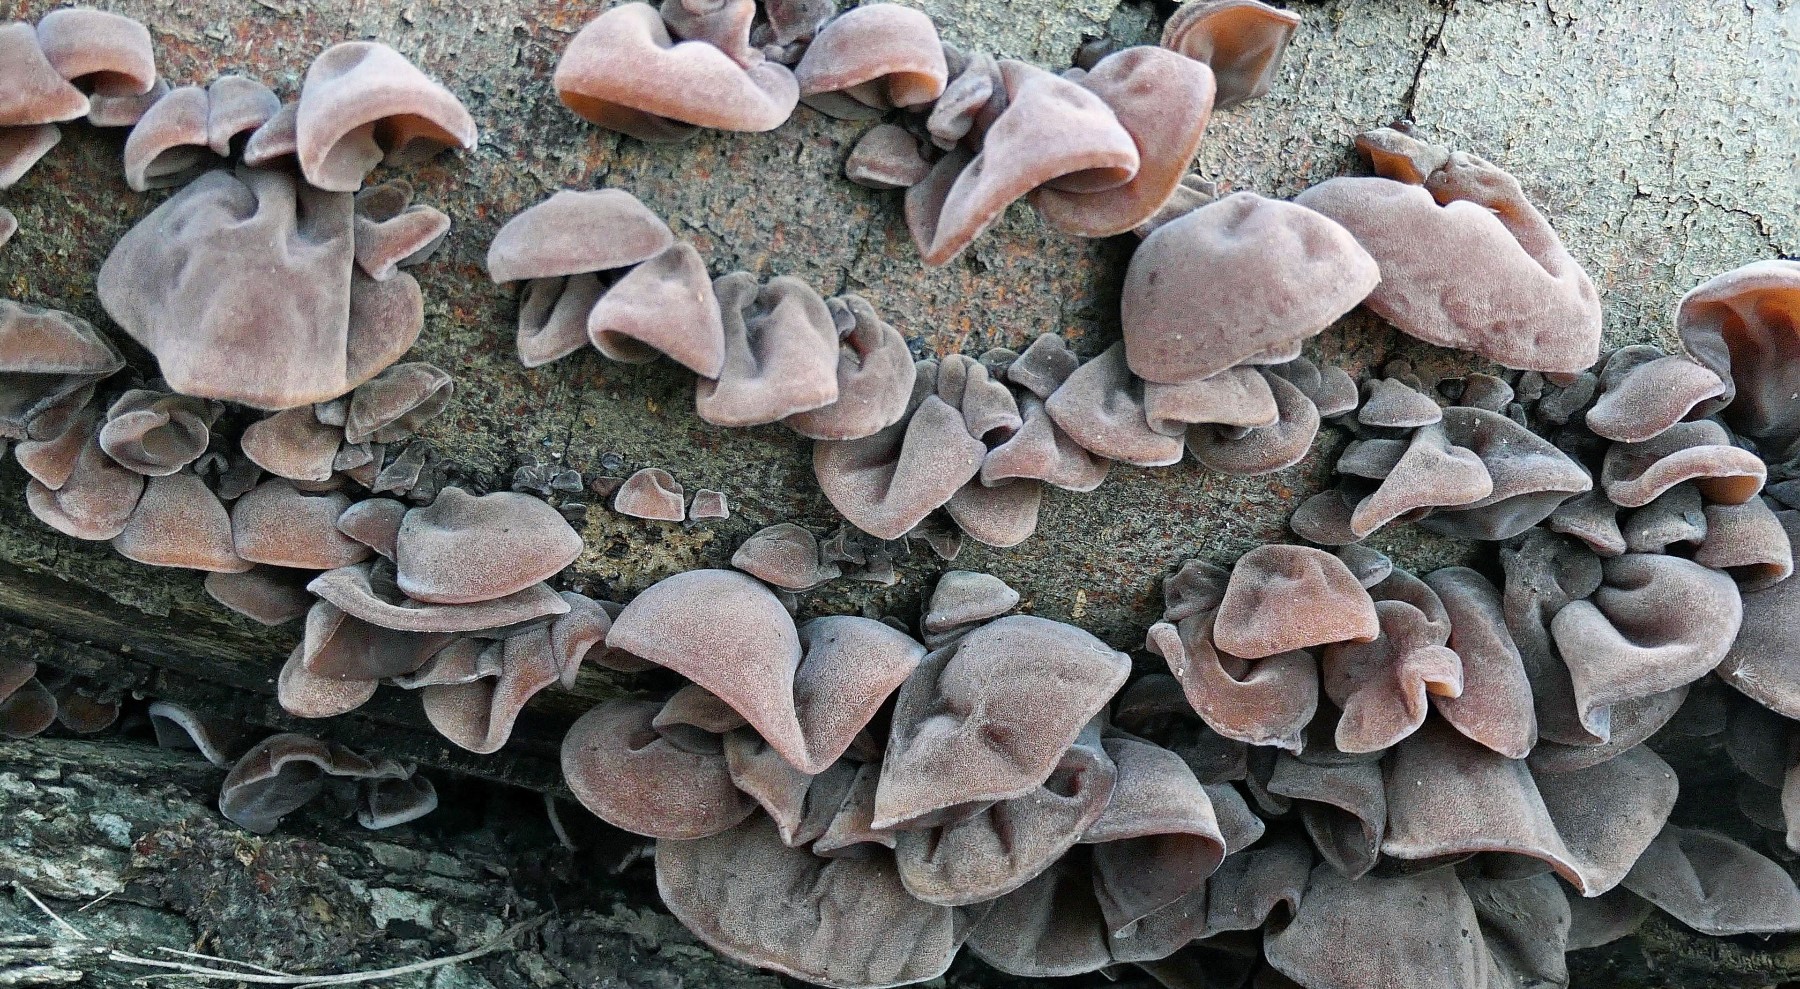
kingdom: Fungi
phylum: Basidiomycota
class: Agaricomycetes
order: Auriculariales
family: Auriculariaceae
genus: Auricularia
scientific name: Auricularia auricula-judae
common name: almindelig judasøre
